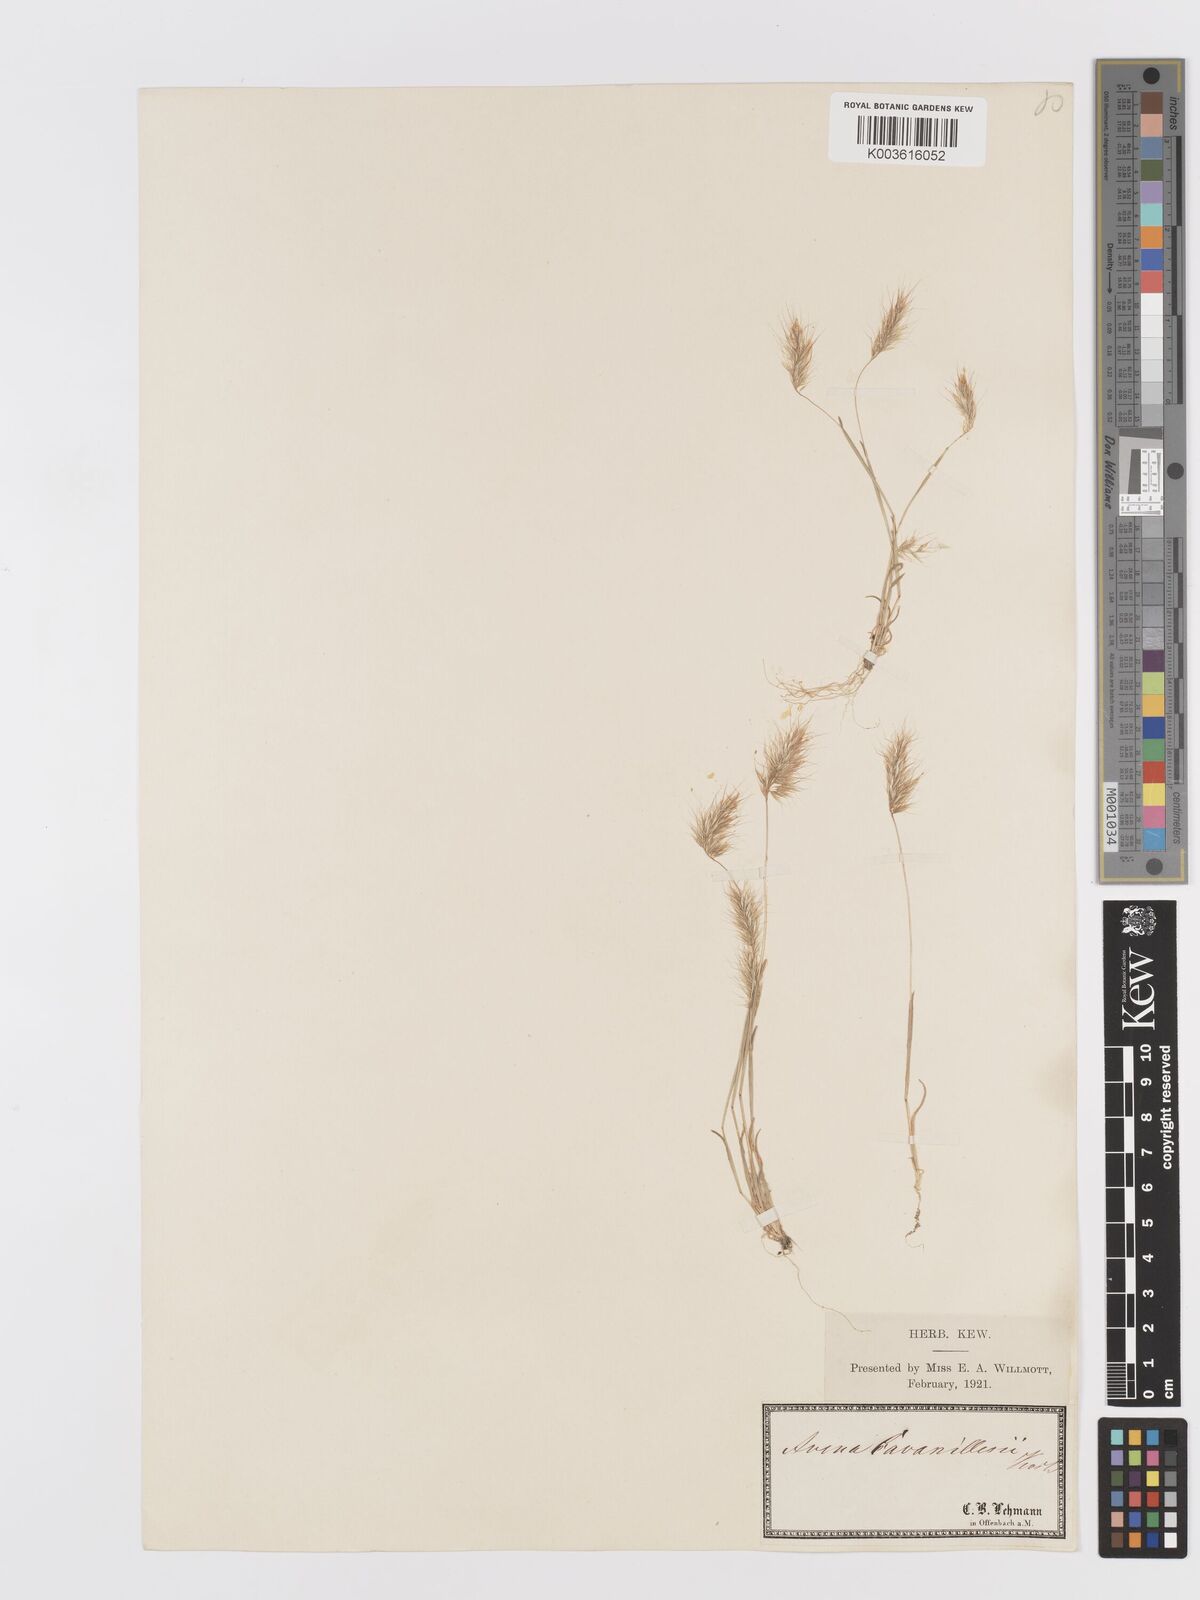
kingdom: Plantae
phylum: Tracheophyta
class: Liliopsida
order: Poales
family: Poaceae
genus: Trisetaria
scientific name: Trisetaria loeflingiana
